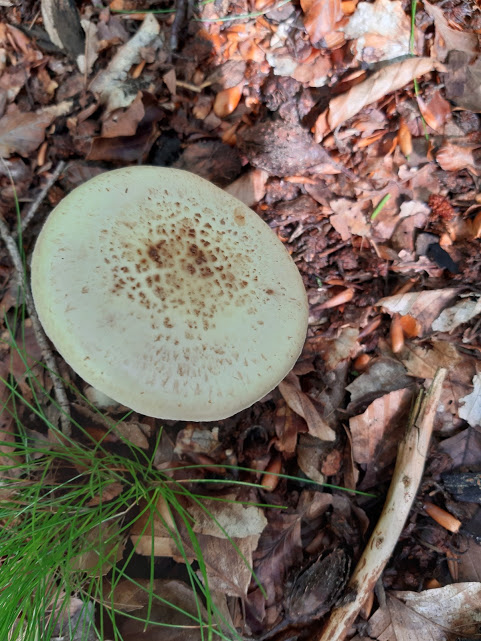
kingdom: Fungi
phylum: Basidiomycota
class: Agaricomycetes
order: Agaricales
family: Amanitaceae
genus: Amanita
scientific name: Amanita citrina
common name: kugleknoldet fluesvamp
